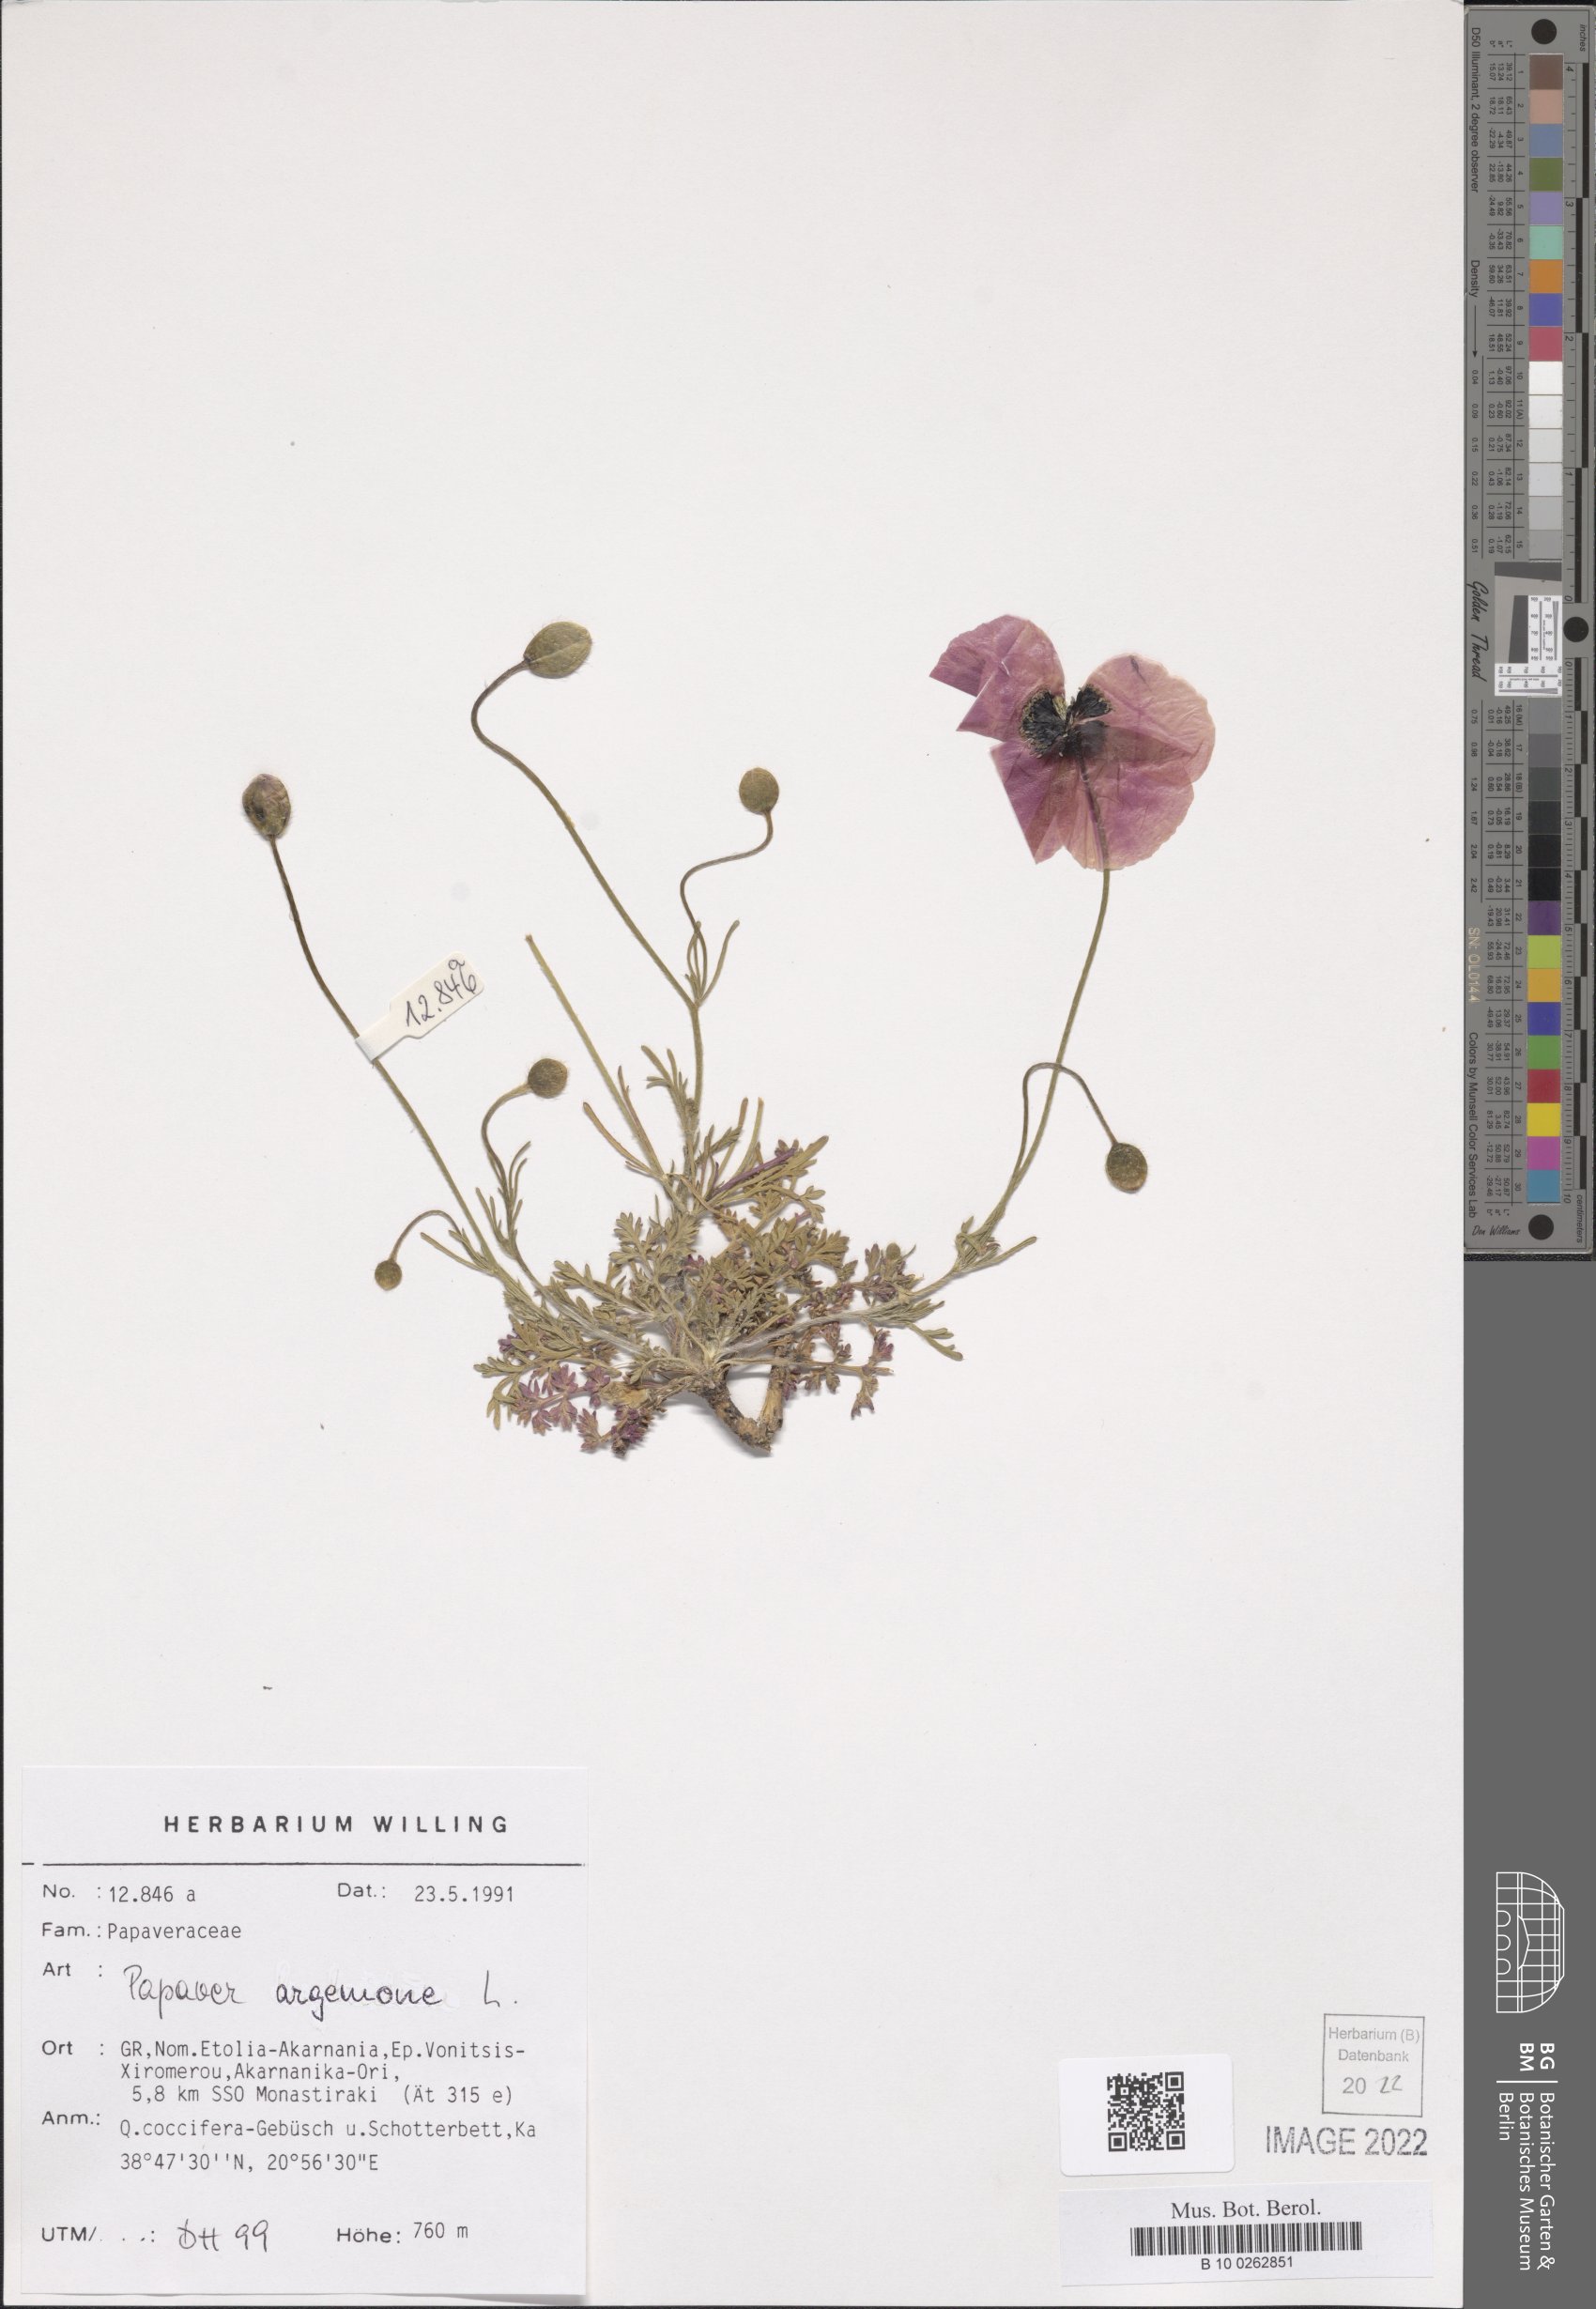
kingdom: Plantae
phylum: Tracheophyta
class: Magnoliopsida
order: Ranunculales
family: Papaveraceae
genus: Roemeria
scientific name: Roemeria argemone
